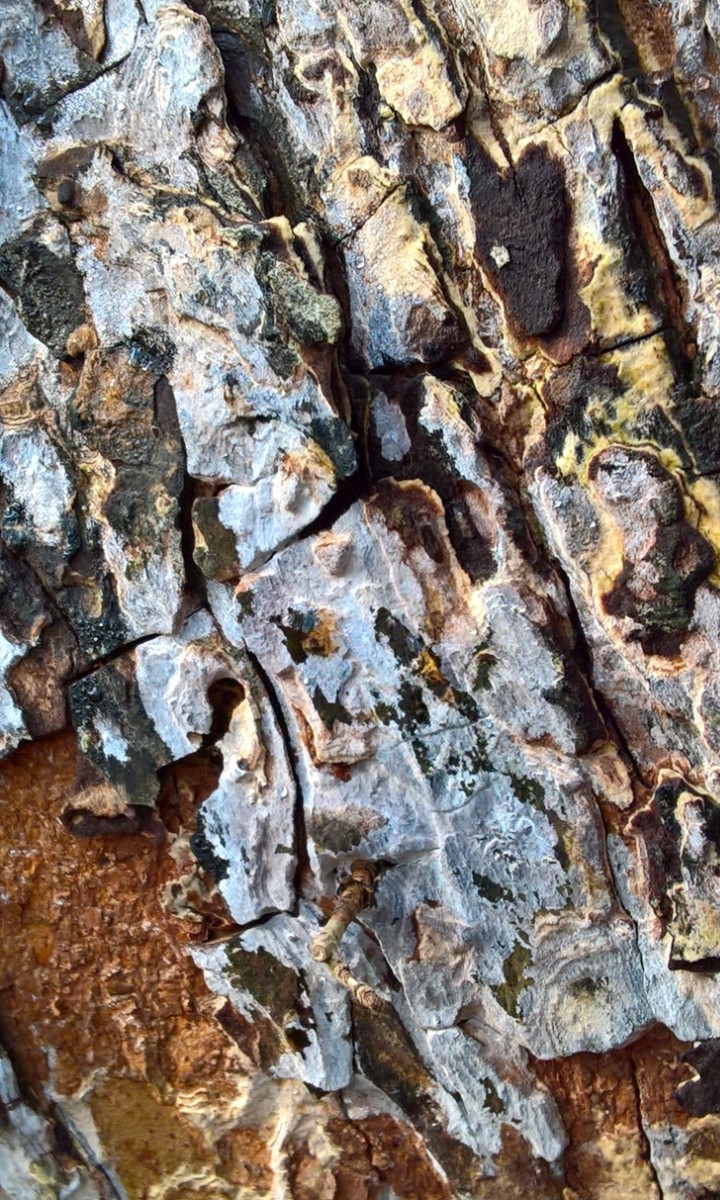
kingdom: Fungi
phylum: Basidiomycota
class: Agaricomycetes
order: Agaricales
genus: Dendrothele
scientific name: Dendrothele acerina
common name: navr-kalkplet
